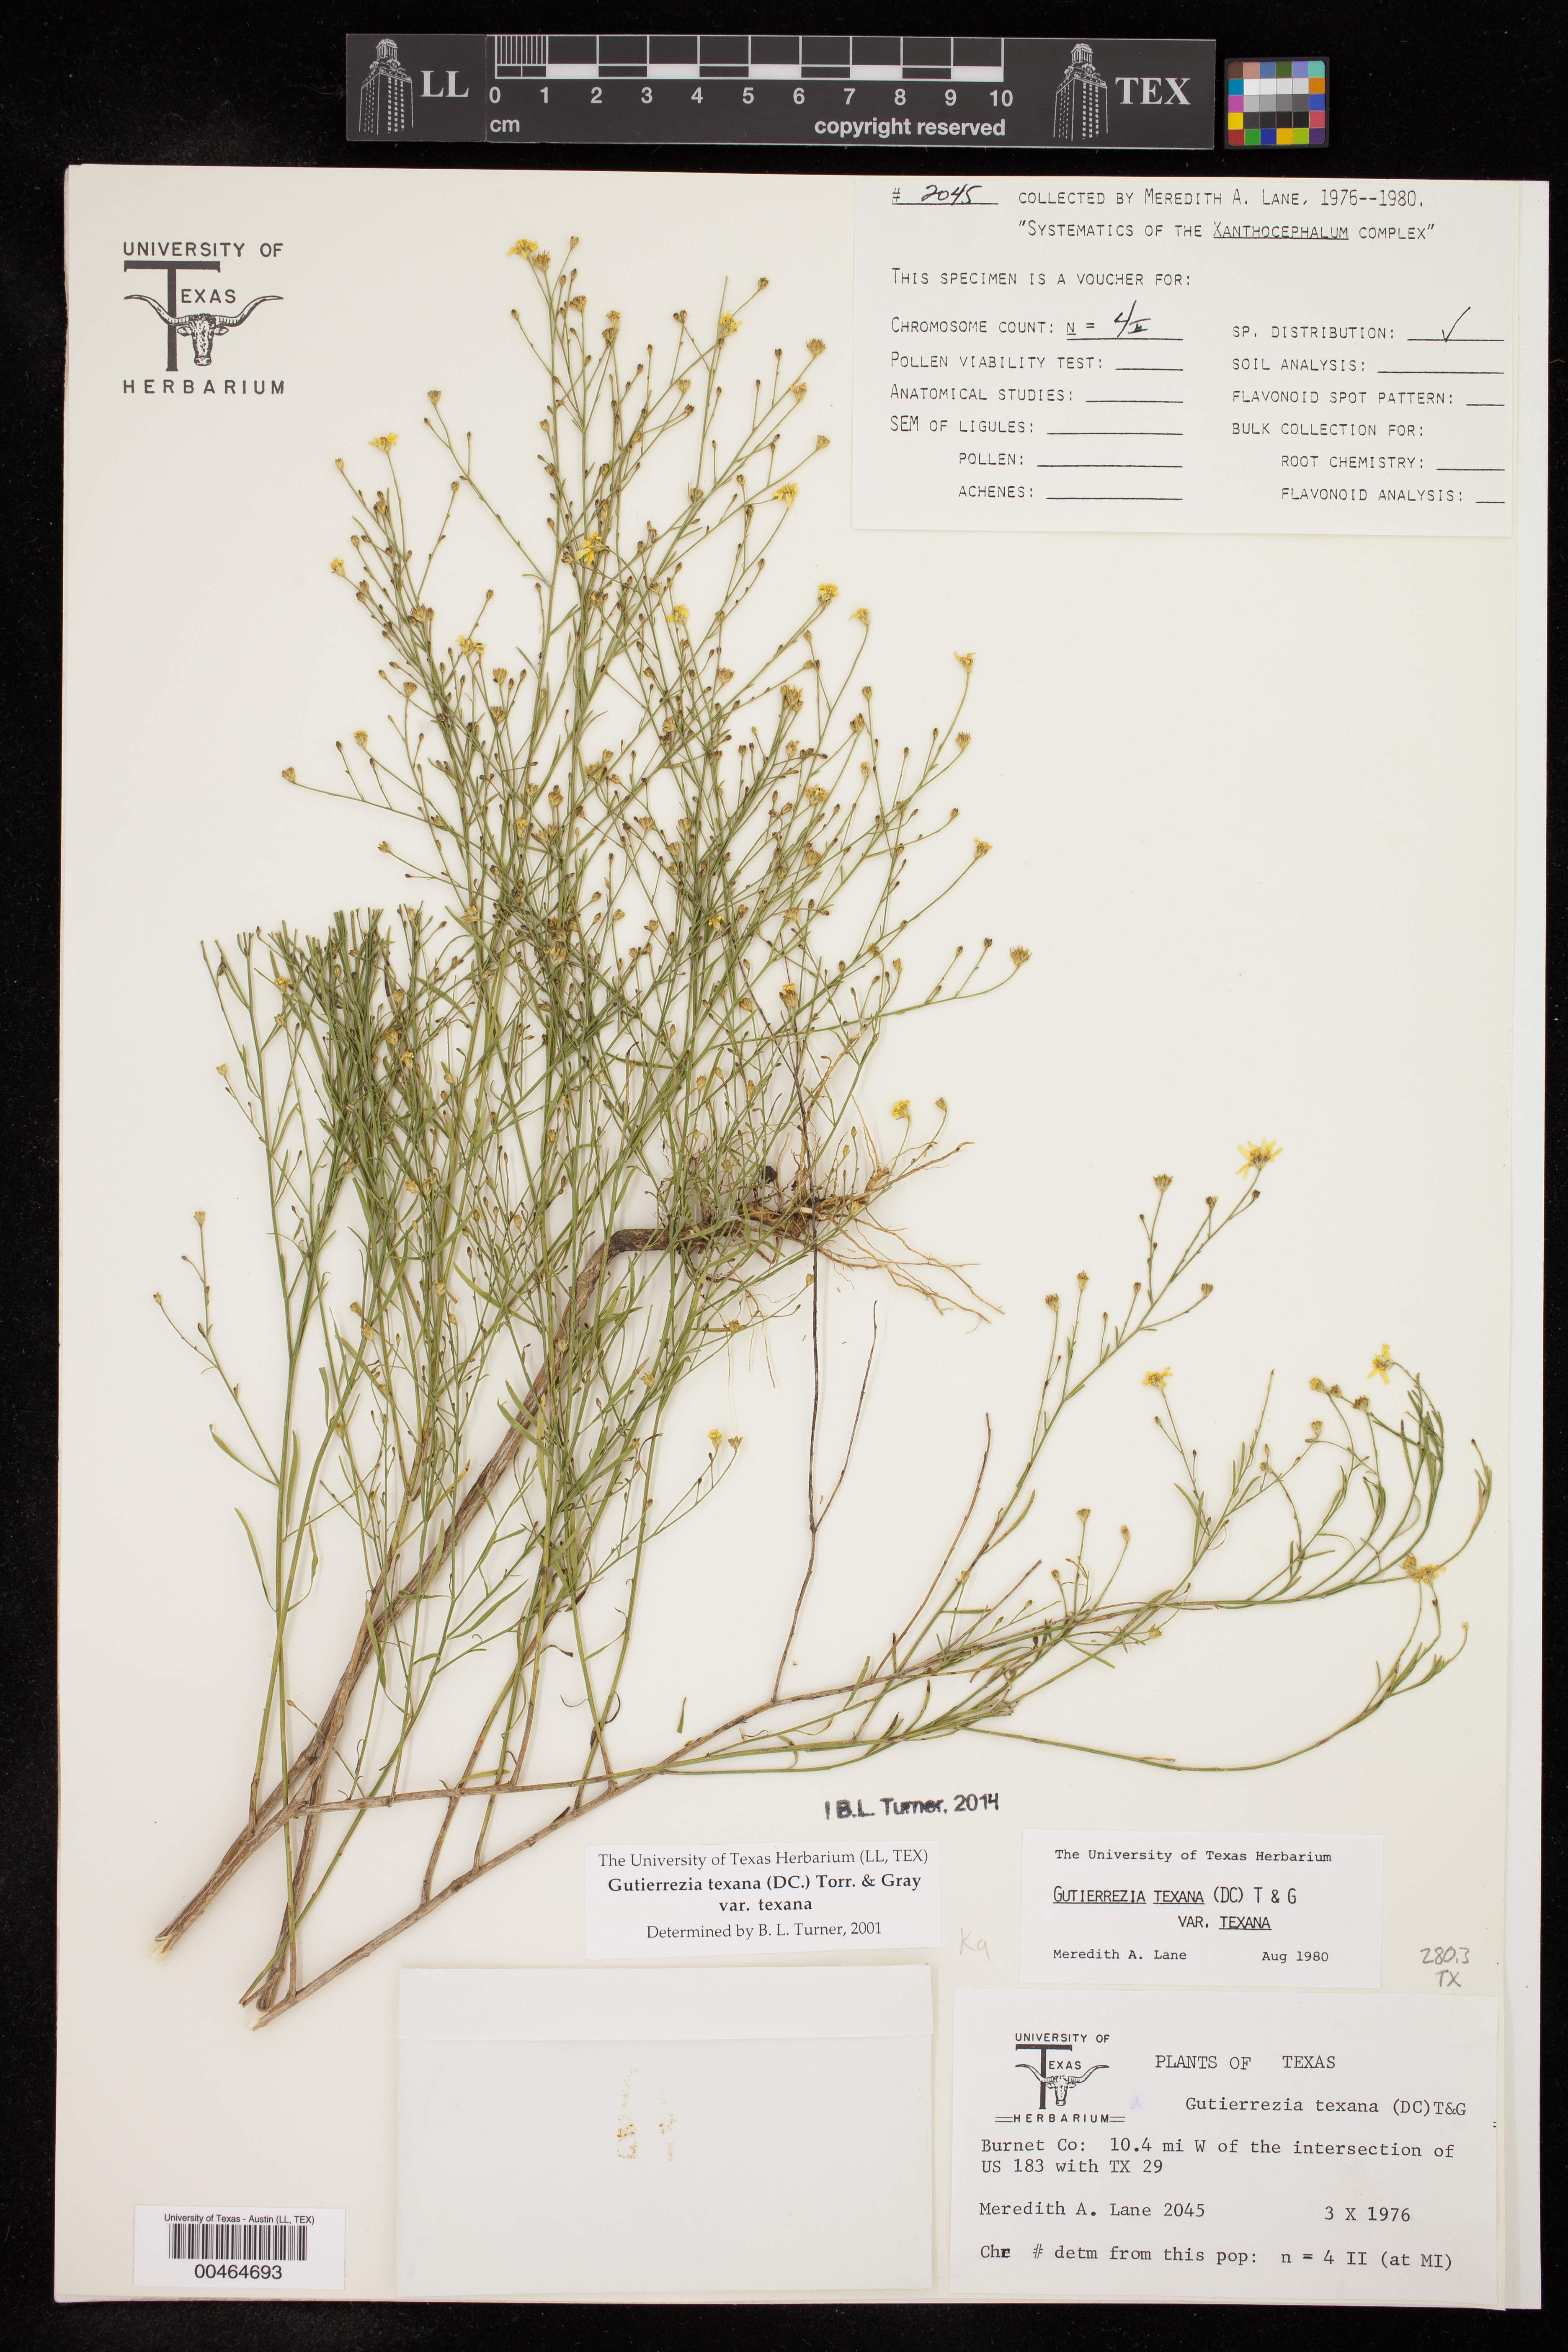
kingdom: Plantae
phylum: Tracheophyta
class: Magnoliopsida
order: Asterales
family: Asteraceae
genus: Gutierrezia
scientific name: Gutierrezia texana
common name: Texas snakeweed
